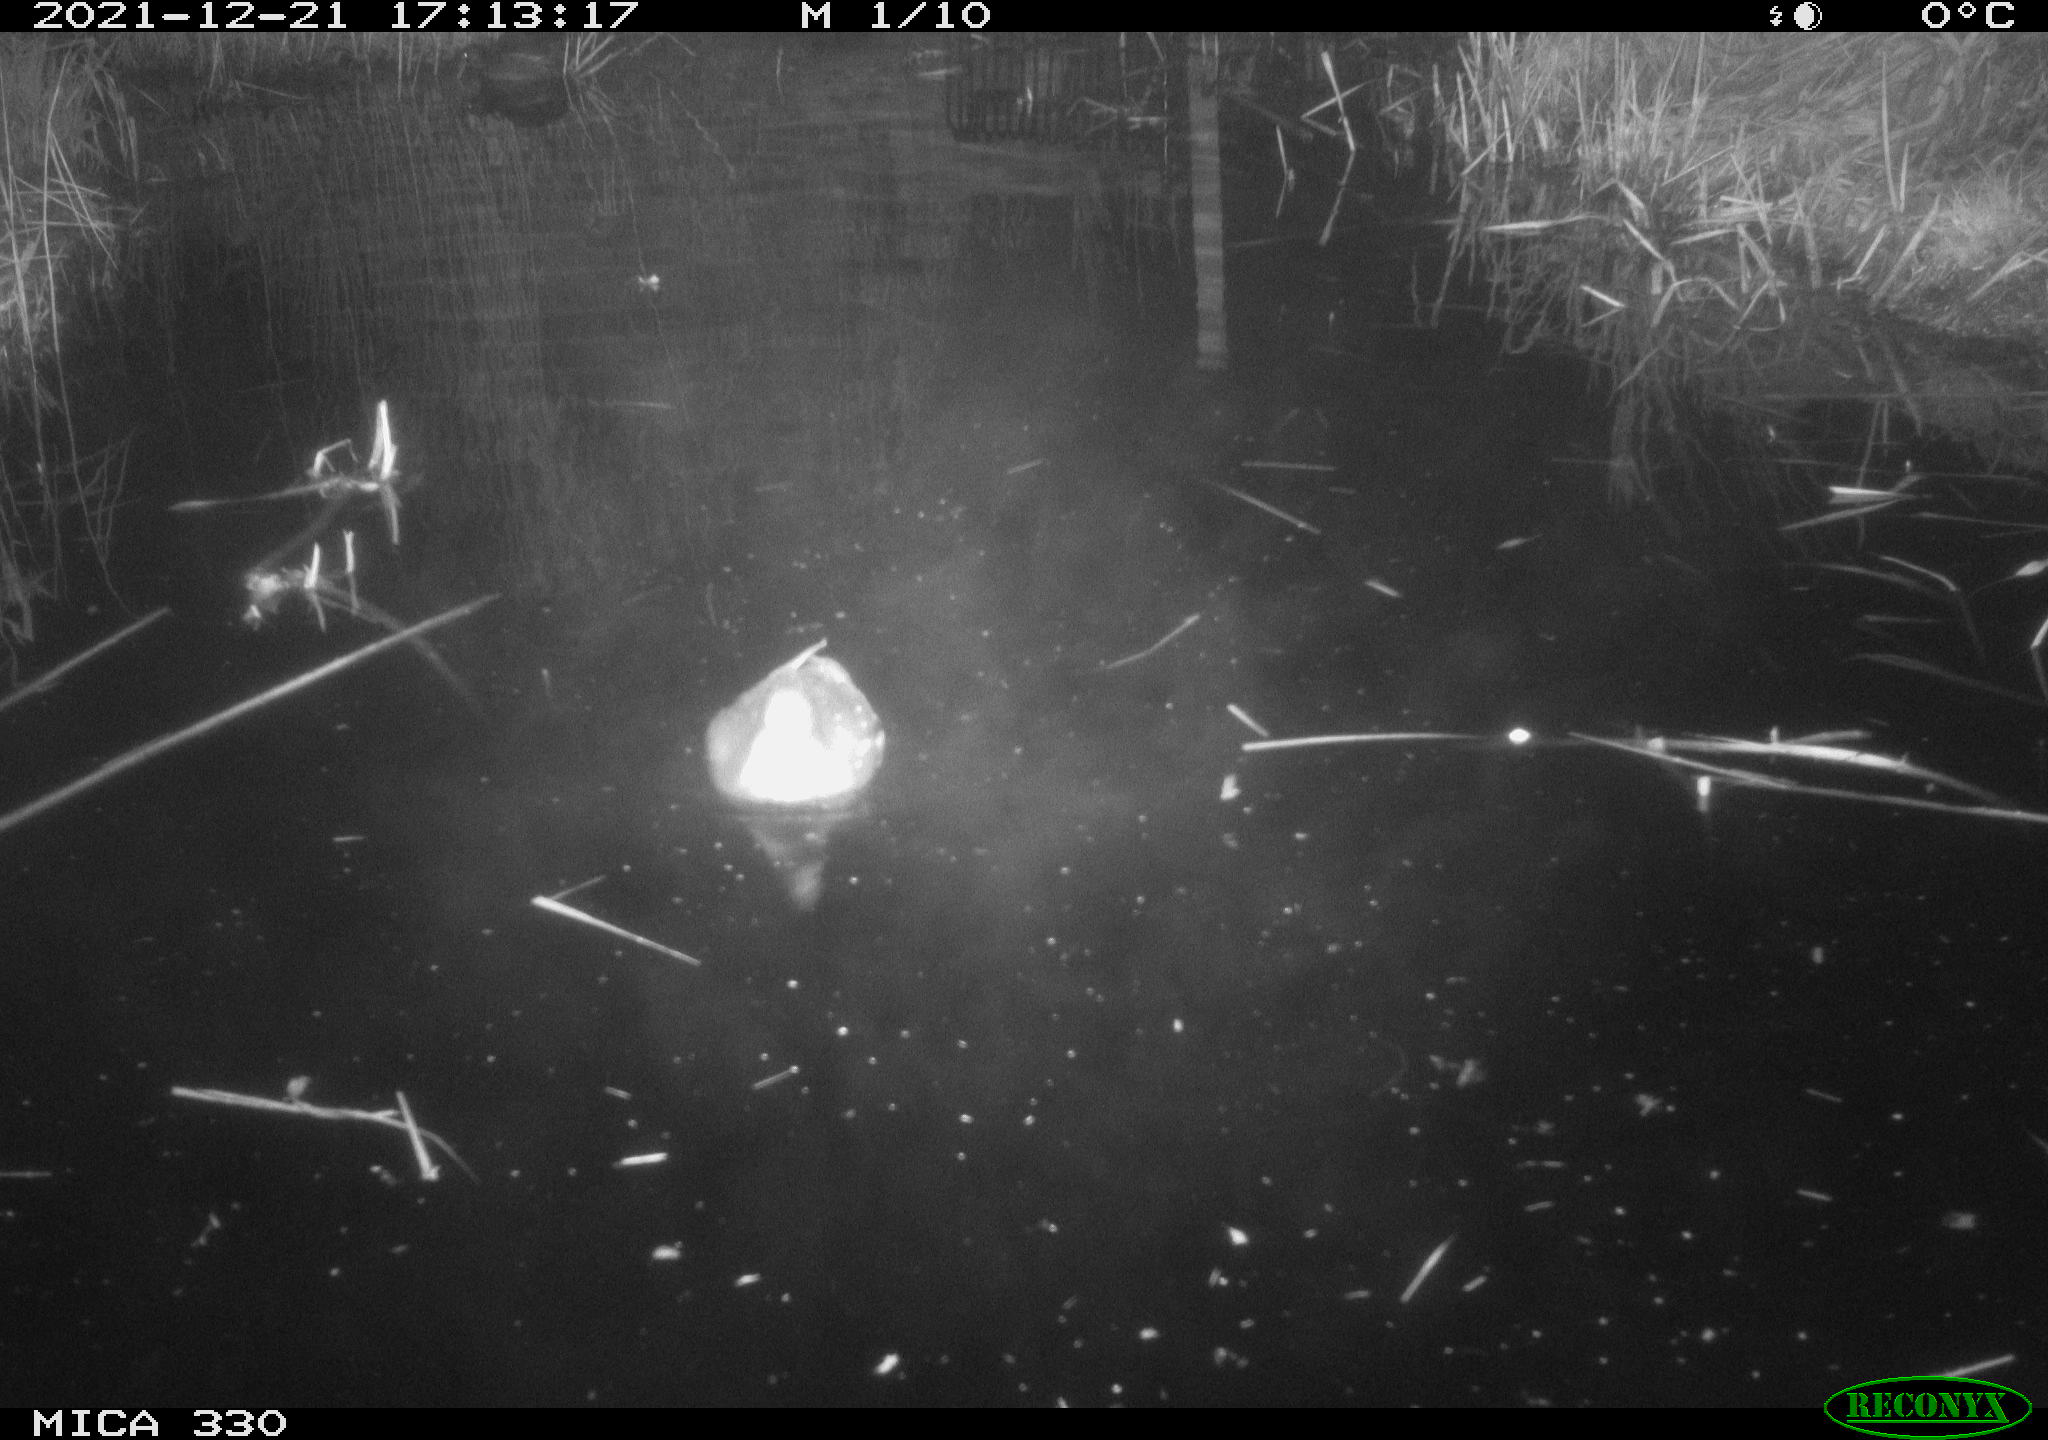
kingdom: Animalia
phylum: Chordata
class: Aves
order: Gruiformes
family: Rallidae
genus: Gallinula
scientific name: Gallinula chloropus
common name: Common moorhen
